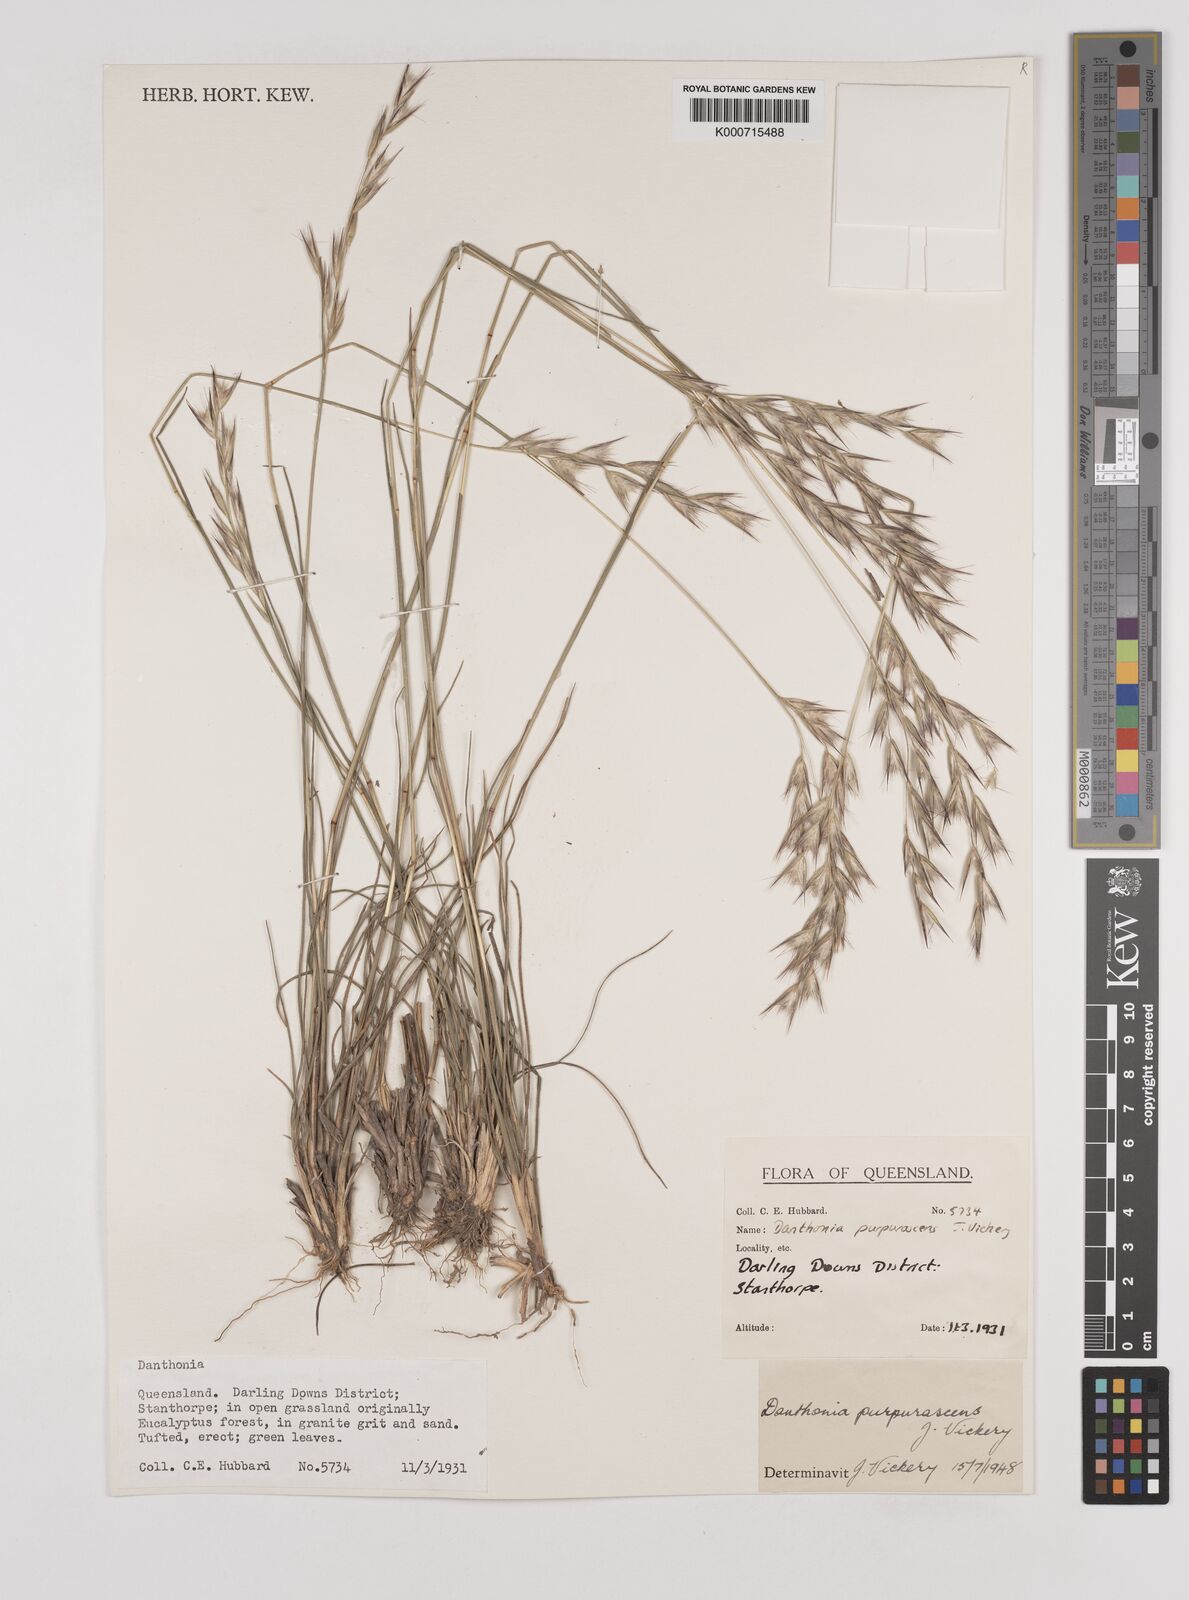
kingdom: Plantae
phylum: Tracheophyta
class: Liliopsida
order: Poales
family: Poaceae
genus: Rytidosperma
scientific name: Rytidosperma tenuius
